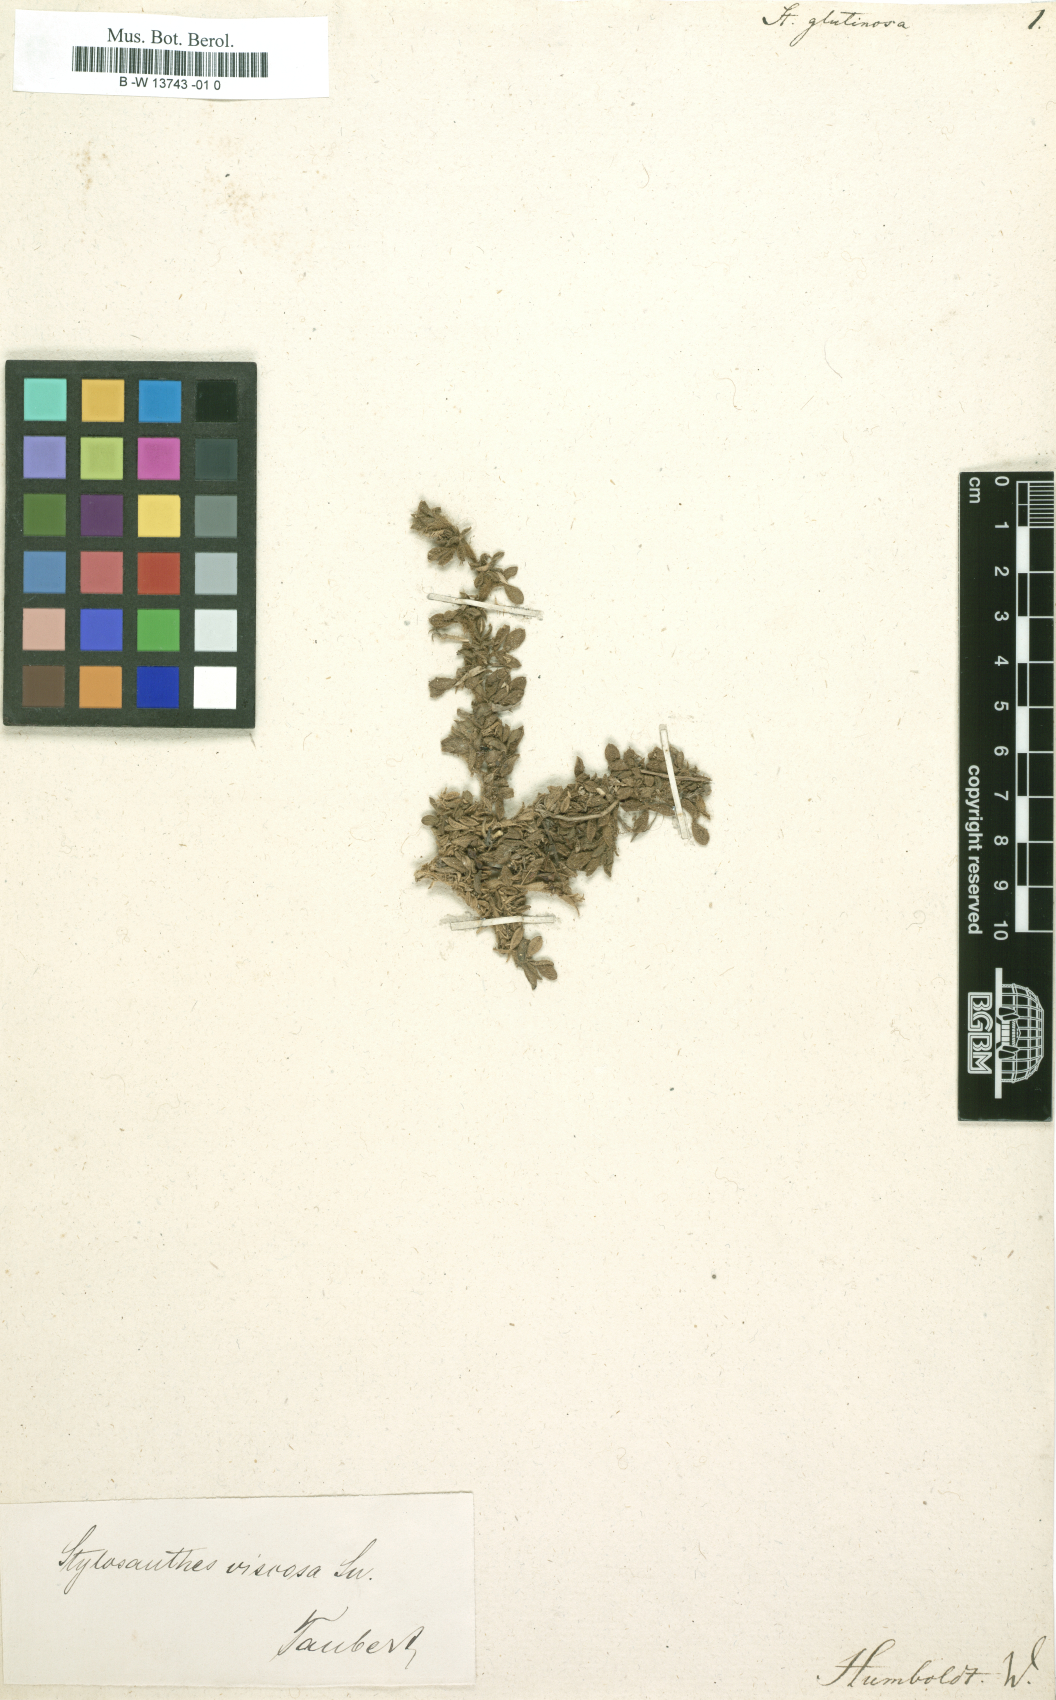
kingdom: Plantae
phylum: Tracheophyta
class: Magnoliopsida
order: Fabales
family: Fabaceae
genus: Stylosanthes
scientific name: Stylosanthes viscosa
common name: Viscid pencil-flower
